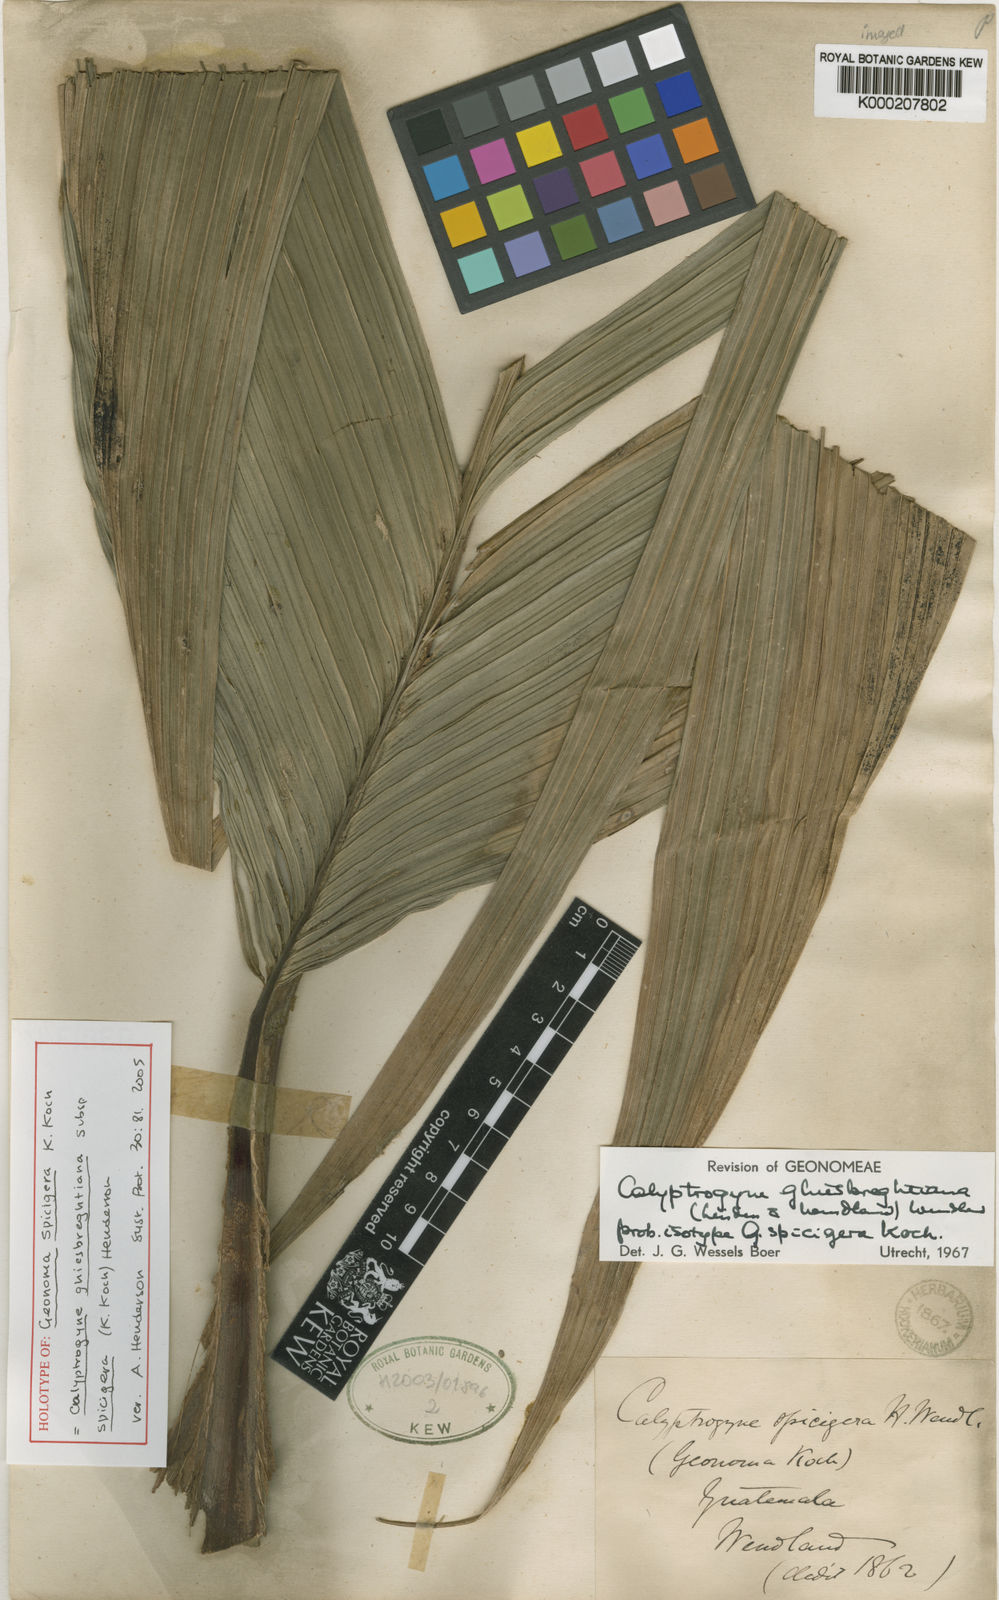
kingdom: Plantae
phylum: Tracheophyta
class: Liliopsida
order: Arecales
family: Arecaceae
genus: Calyptrogyne
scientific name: Calyptrogyne ghiesbreghtiana
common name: Coligallo
